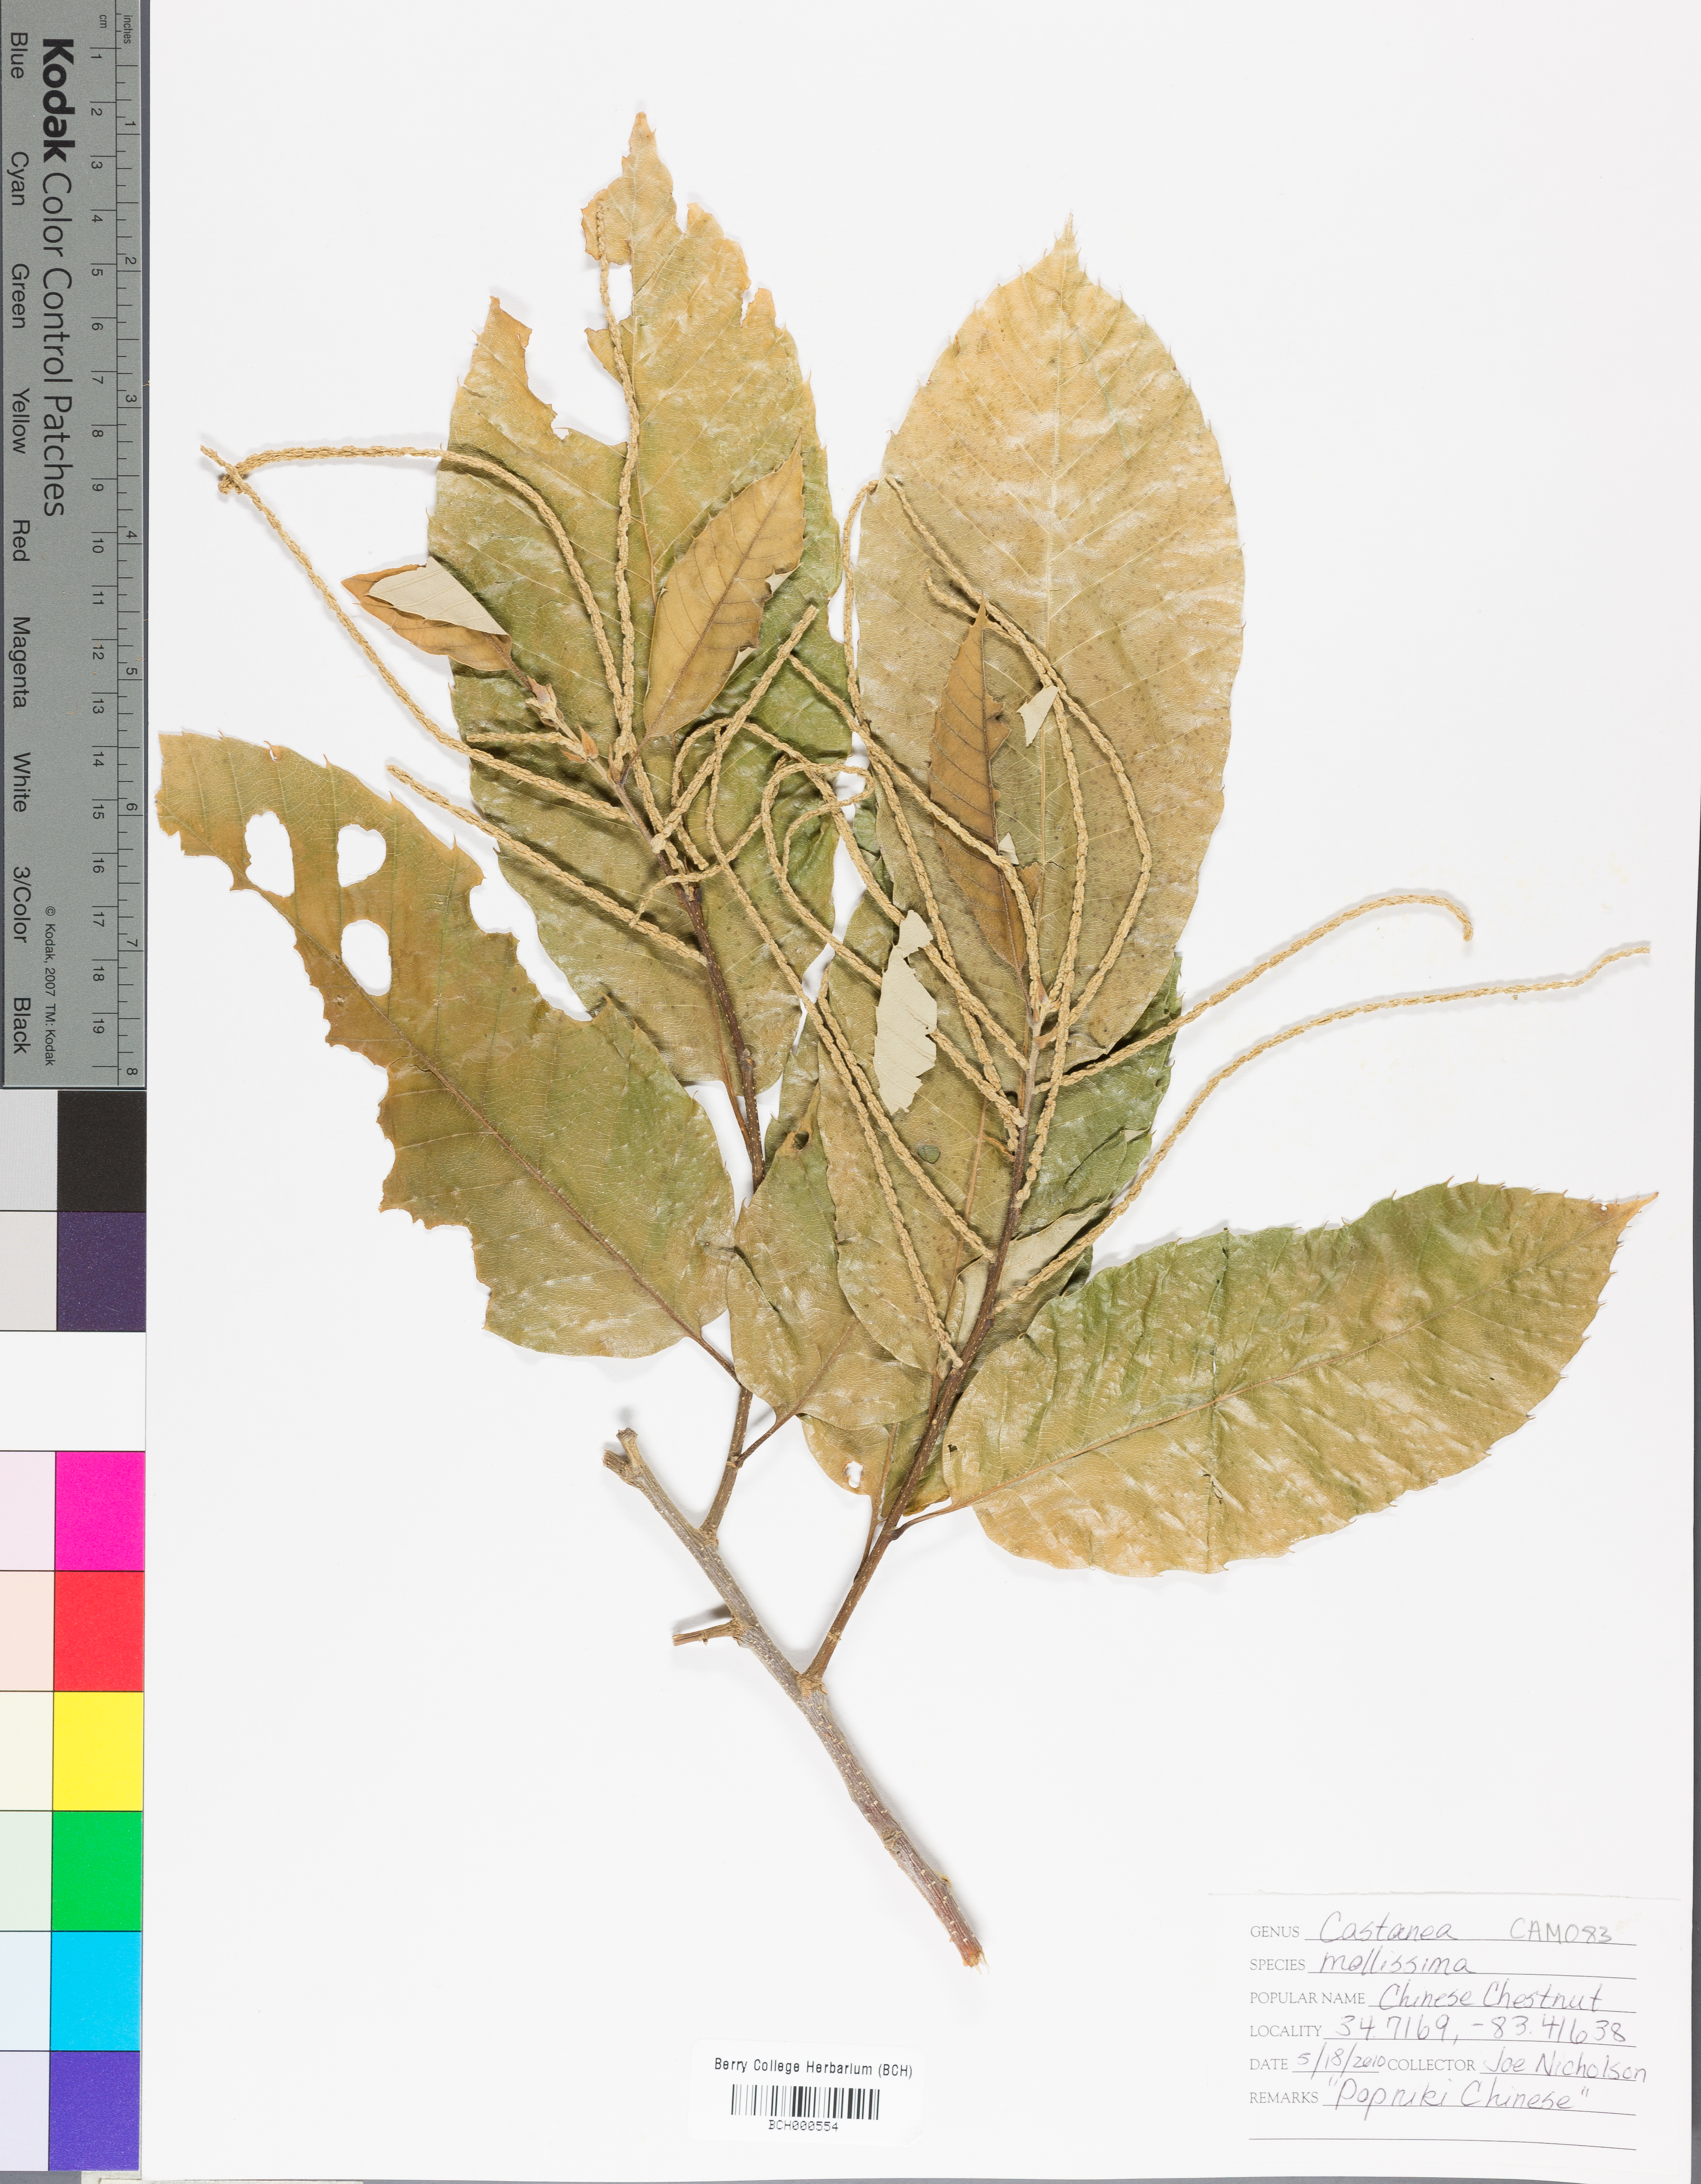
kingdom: Plantae
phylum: Tracheophyta
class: Magnoliopsida
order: Fagales
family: Fagaceae
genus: Castanea
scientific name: Castanea mollissima
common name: Chinese chestnut
